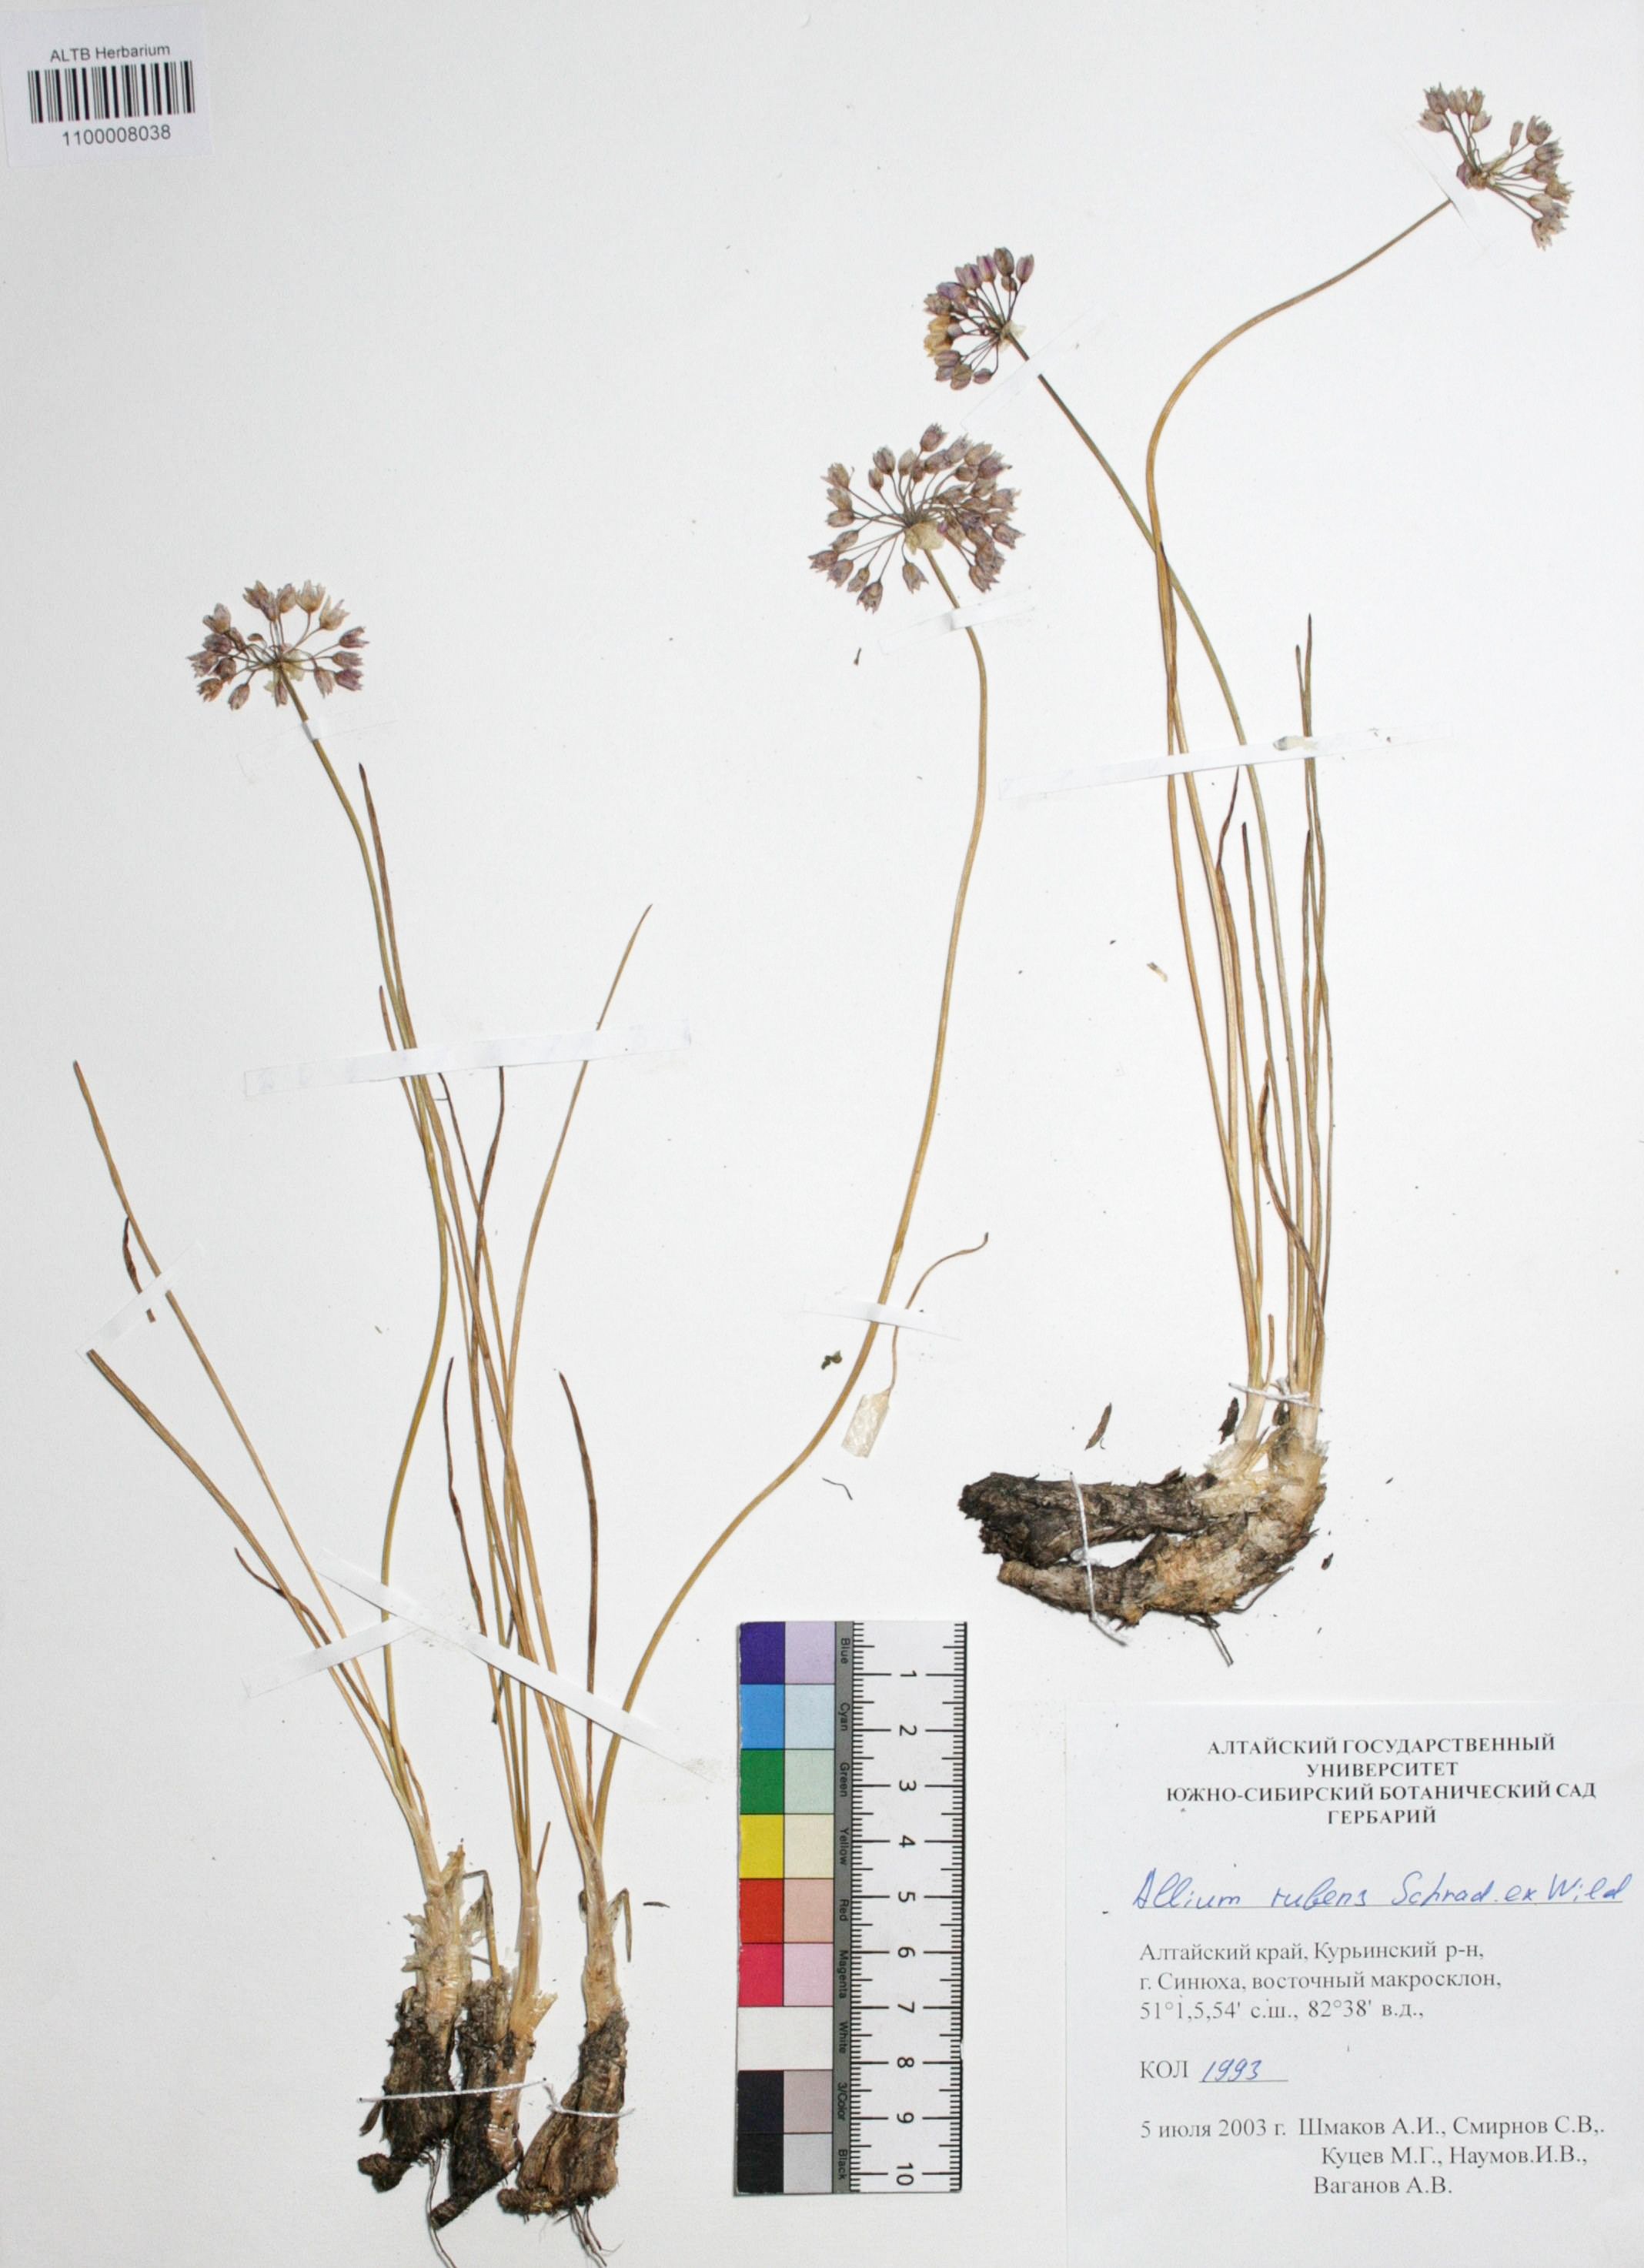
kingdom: Plantae
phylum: Tracheophyta
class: Liliopsida
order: Asparagales
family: Amaryllidaceae
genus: Allium
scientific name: Allium rubens
